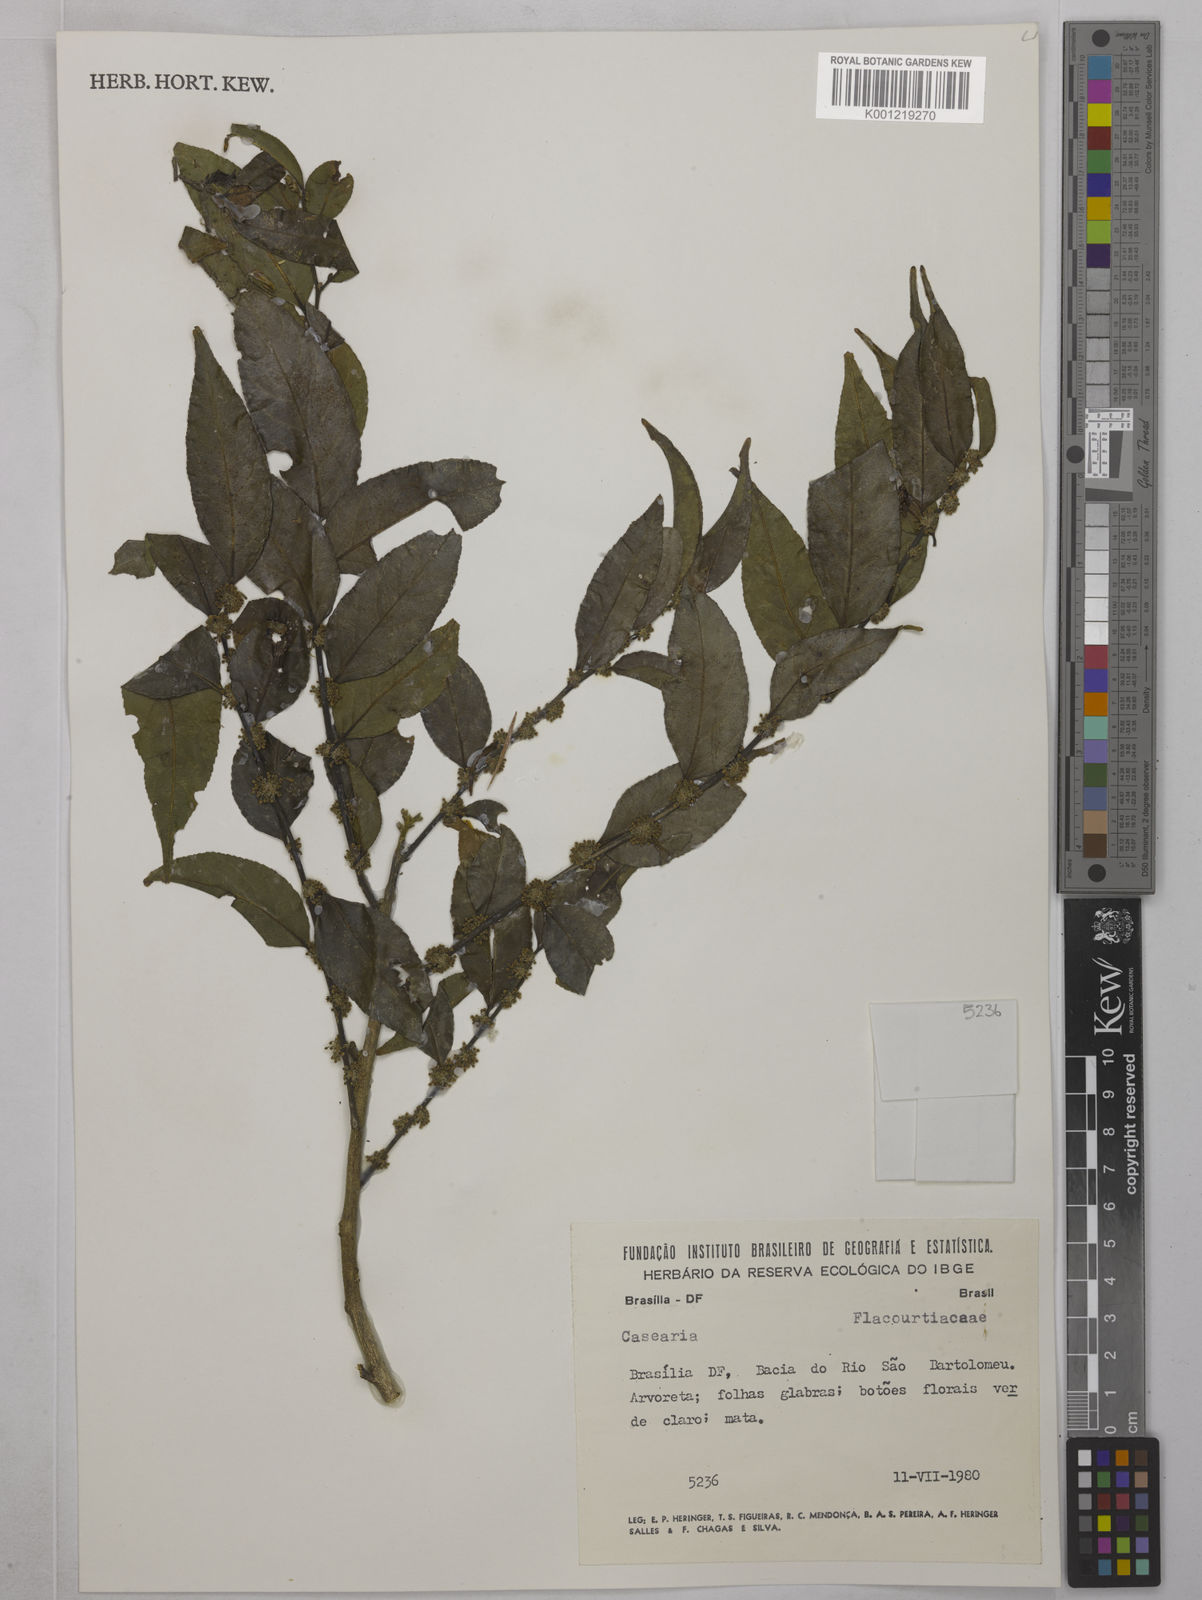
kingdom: Plantae
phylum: Tracheophyta
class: Magnoliopsida
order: Malpighiales
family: Salicaceae
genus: Casearia
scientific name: Casearia
